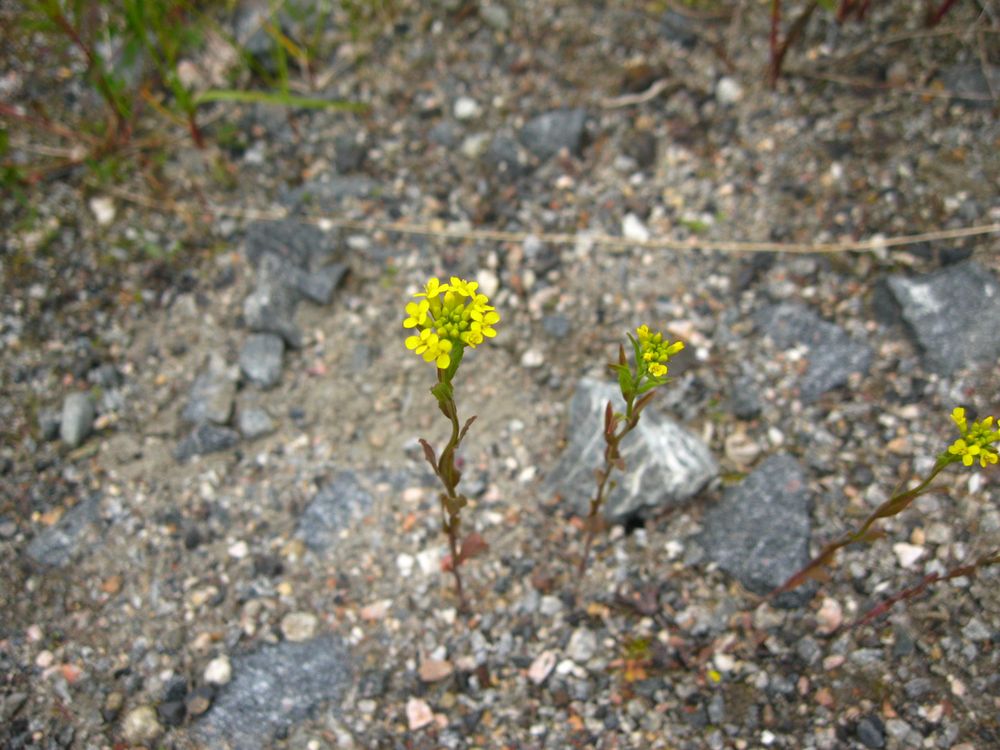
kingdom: Plantae
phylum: Tracheophyta
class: Magnoliopsida
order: Brassicales
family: Brassicaceae
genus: Barbarea
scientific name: Barbarea vulgaris
